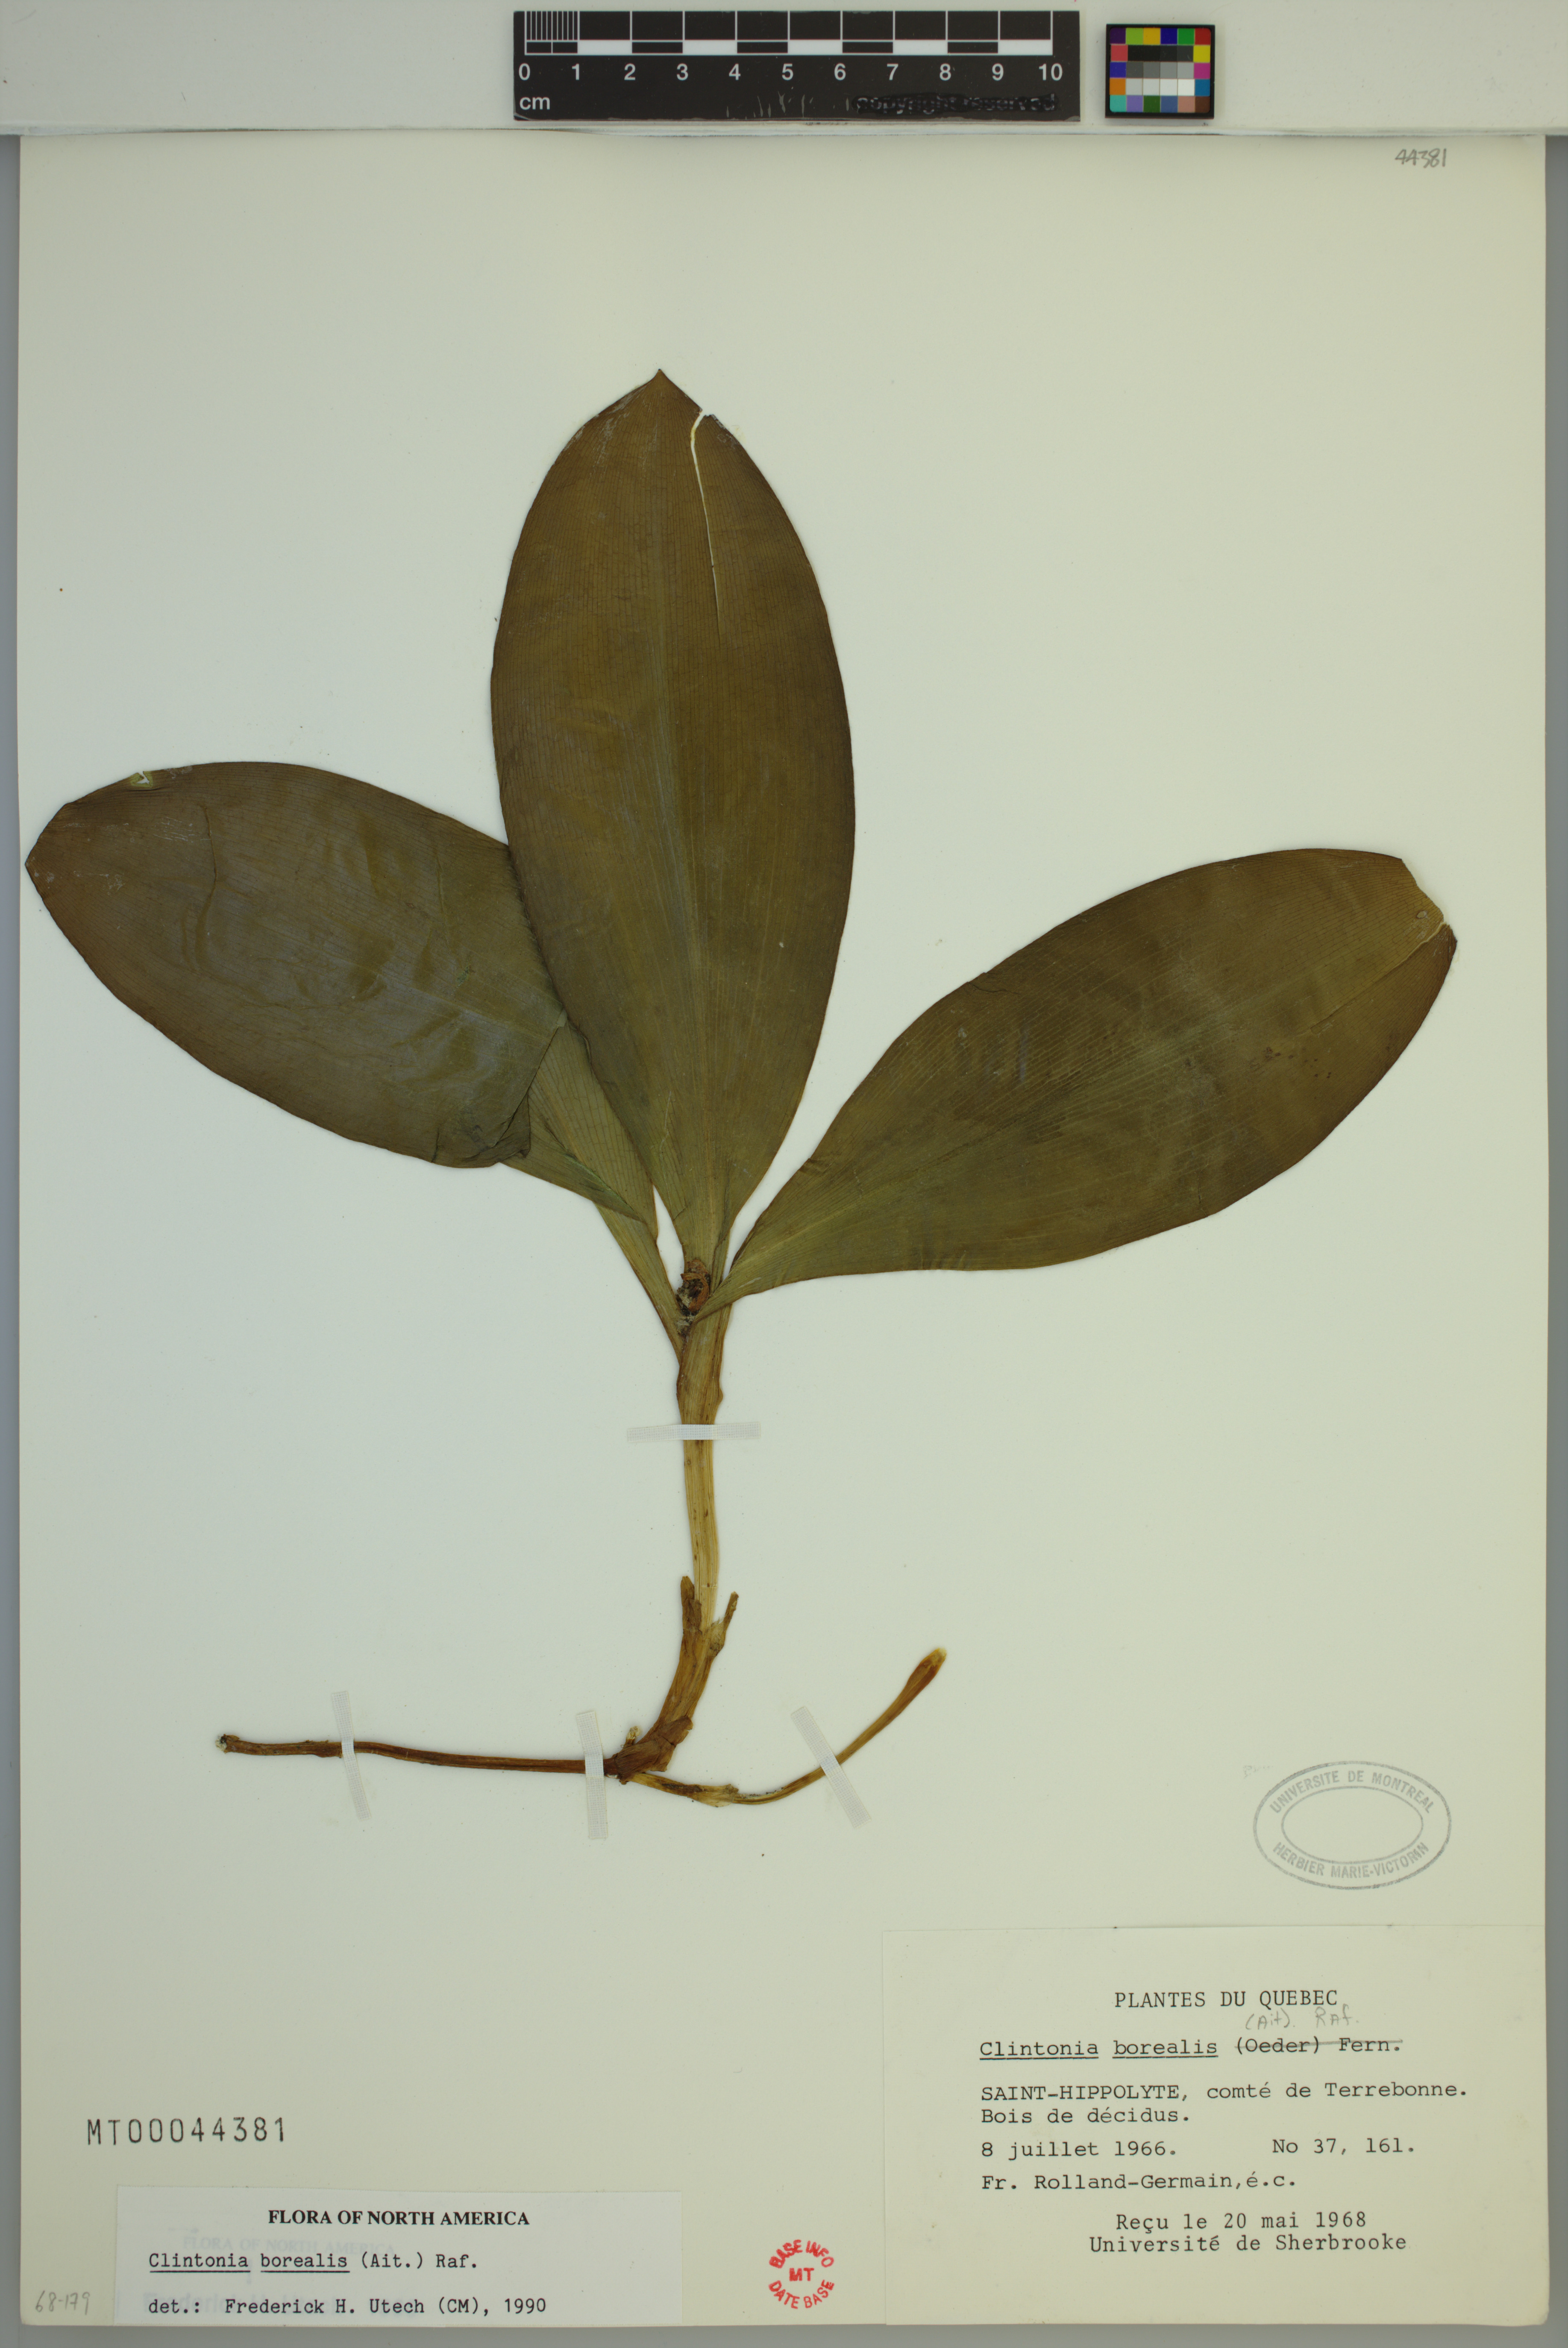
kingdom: Plantae
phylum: Tracheophyta
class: Liliopsida
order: Liliales
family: Liliaceae
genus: Clintonia
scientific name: Clintonia borealis
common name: Yellow clintonia
